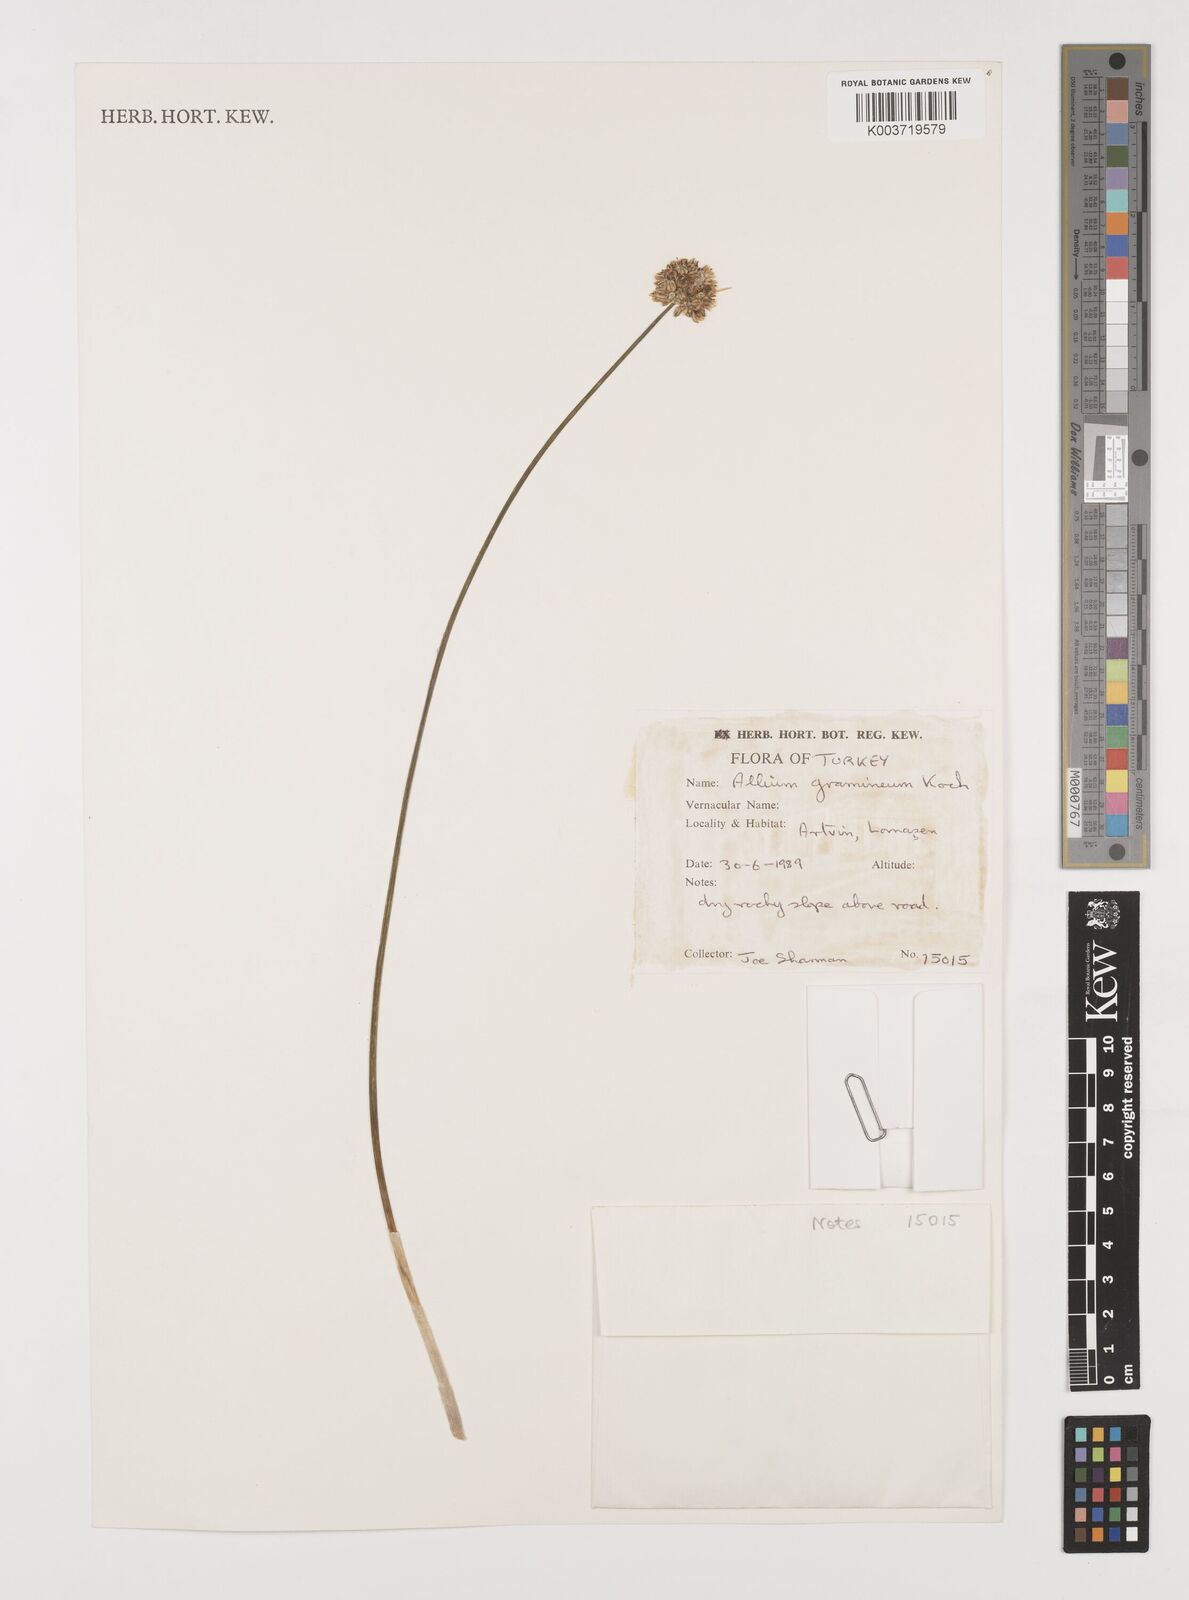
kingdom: Plantae
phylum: Tracheophyta
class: Liliopsida
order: Asparagales
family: Amaryllidaceae
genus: Allium
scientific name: Allium gramineum
